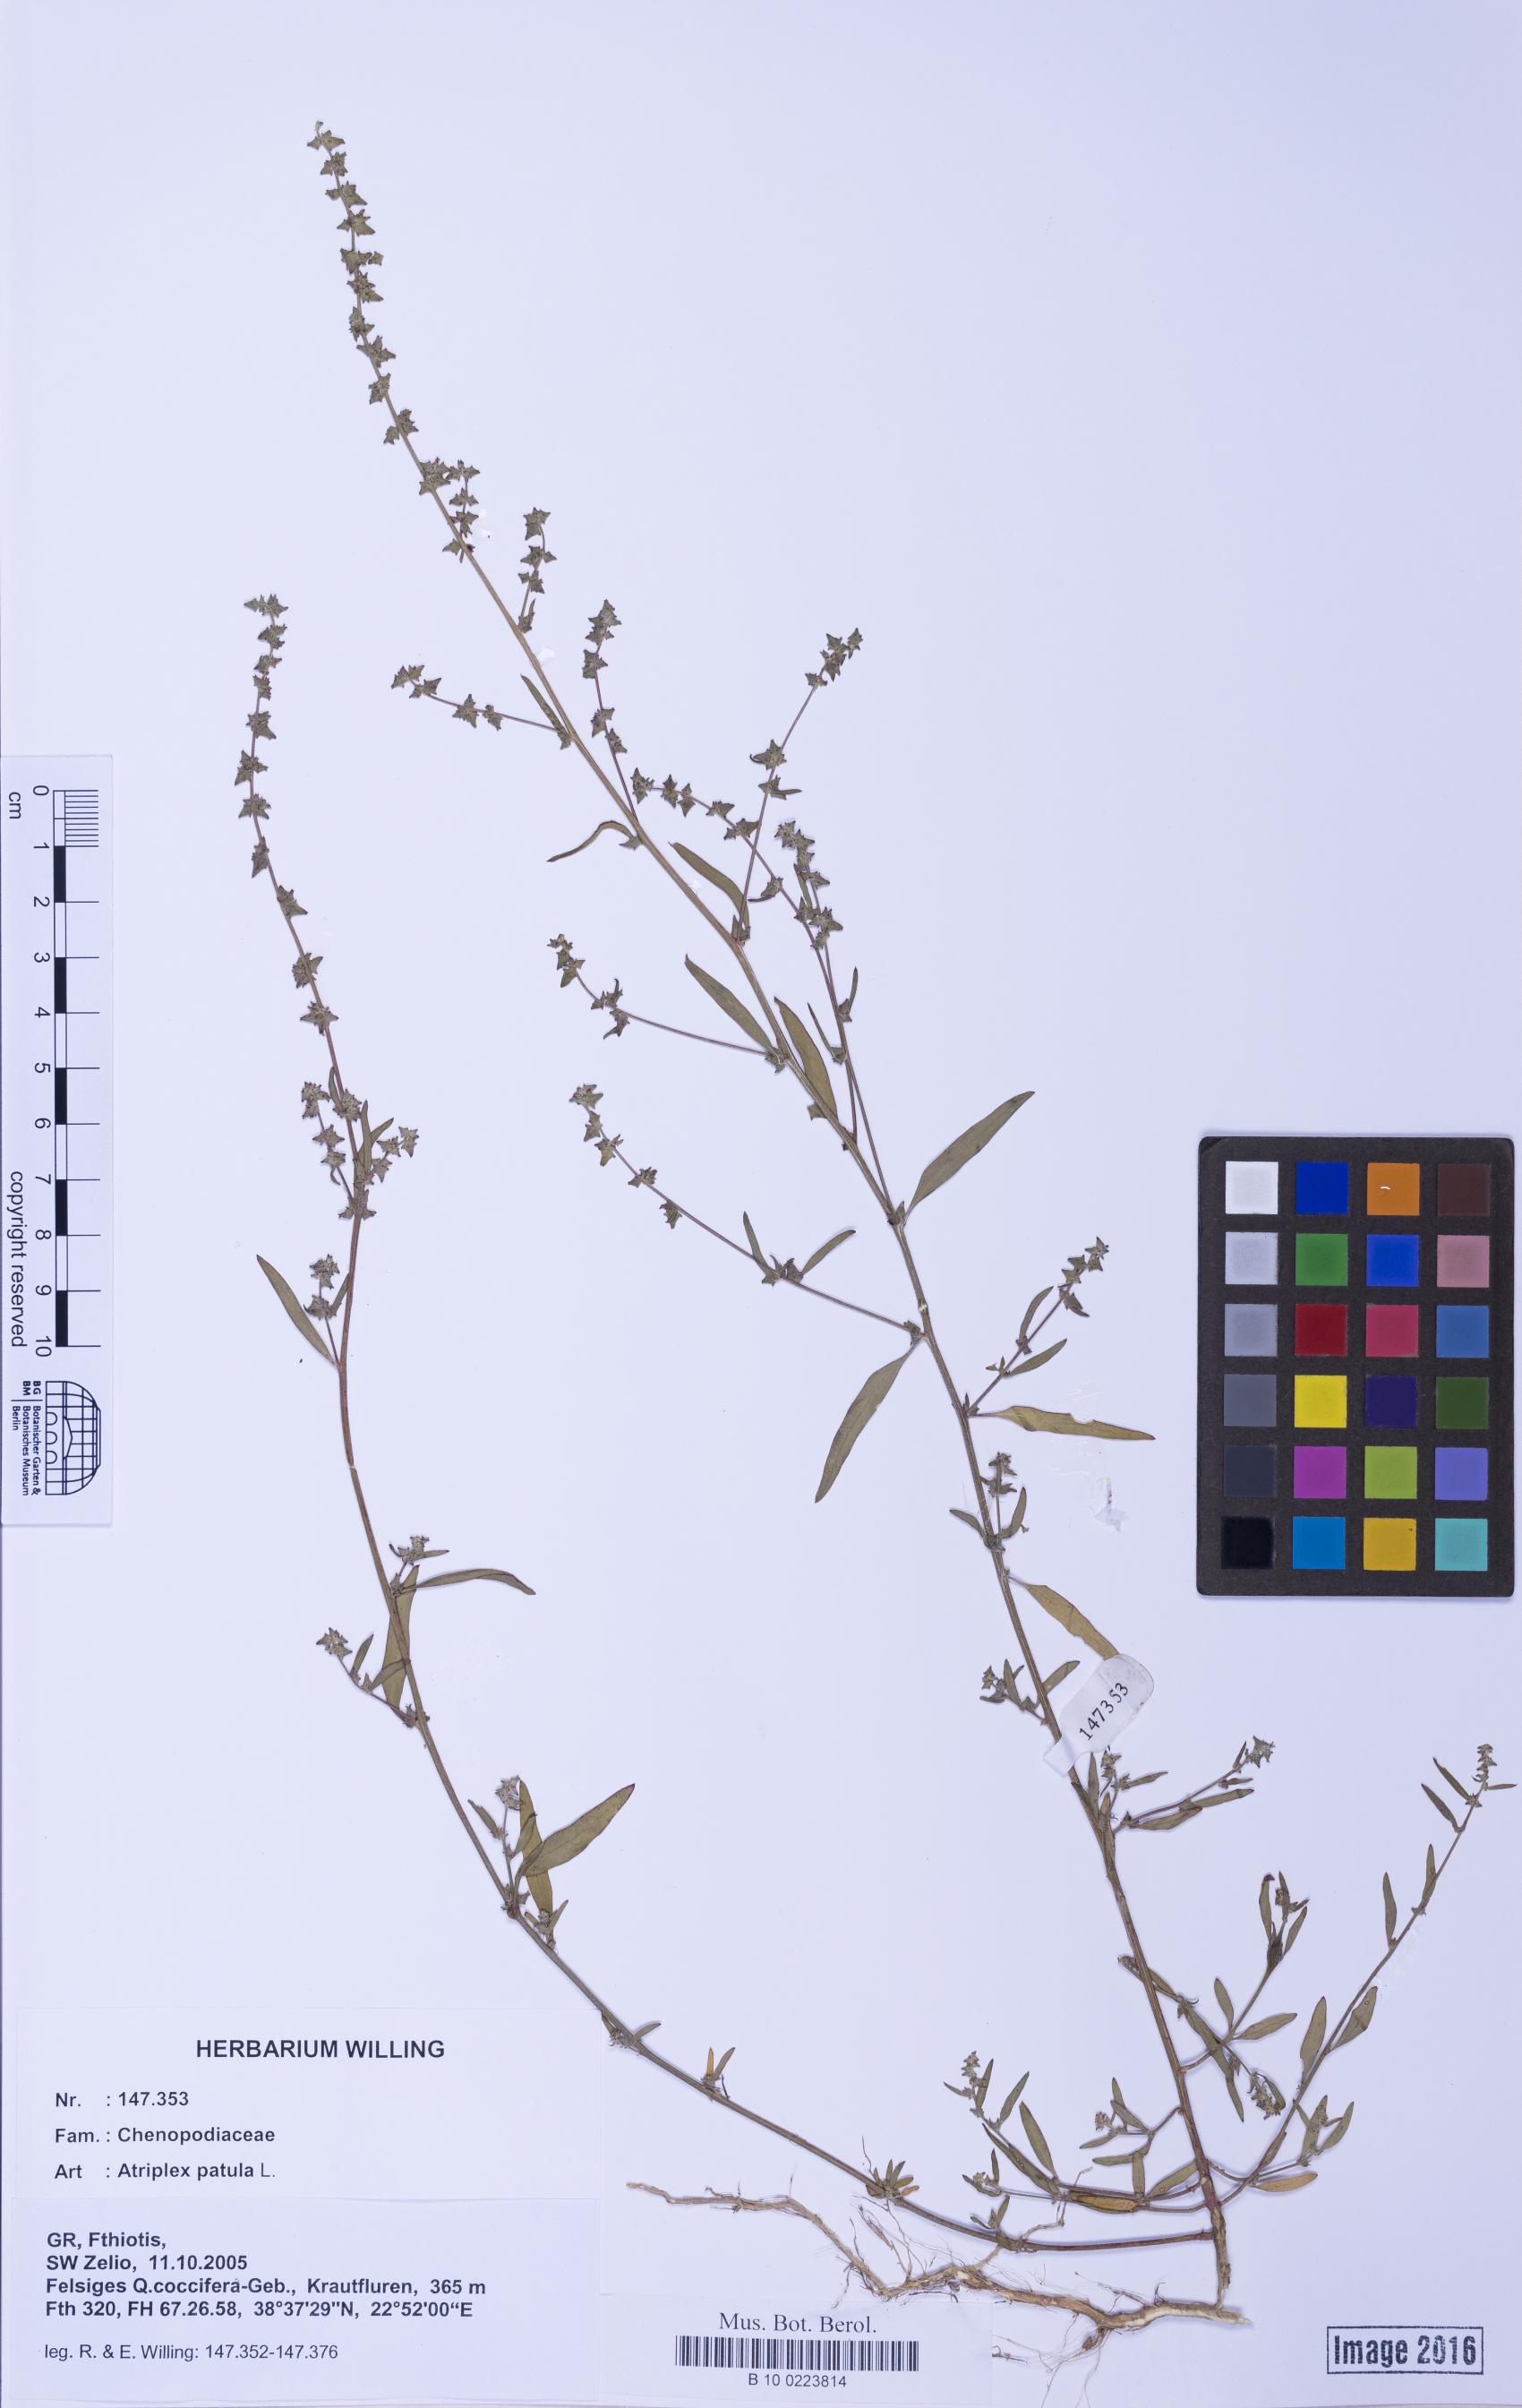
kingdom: Plantae
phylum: Tracheophyta
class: Magnoliopsida
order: Caryophyllales
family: Amaranthaceae
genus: Atriplex
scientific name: Atriplex patula
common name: Common orache
